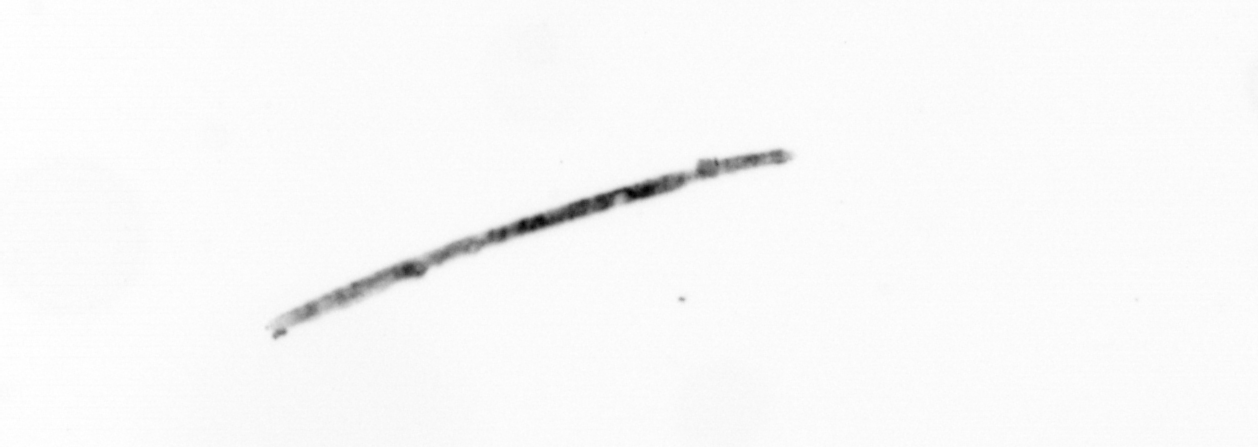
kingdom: Chromista
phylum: Ochrophyta
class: Bacillariophyceae
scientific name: Bacillariophyceae
